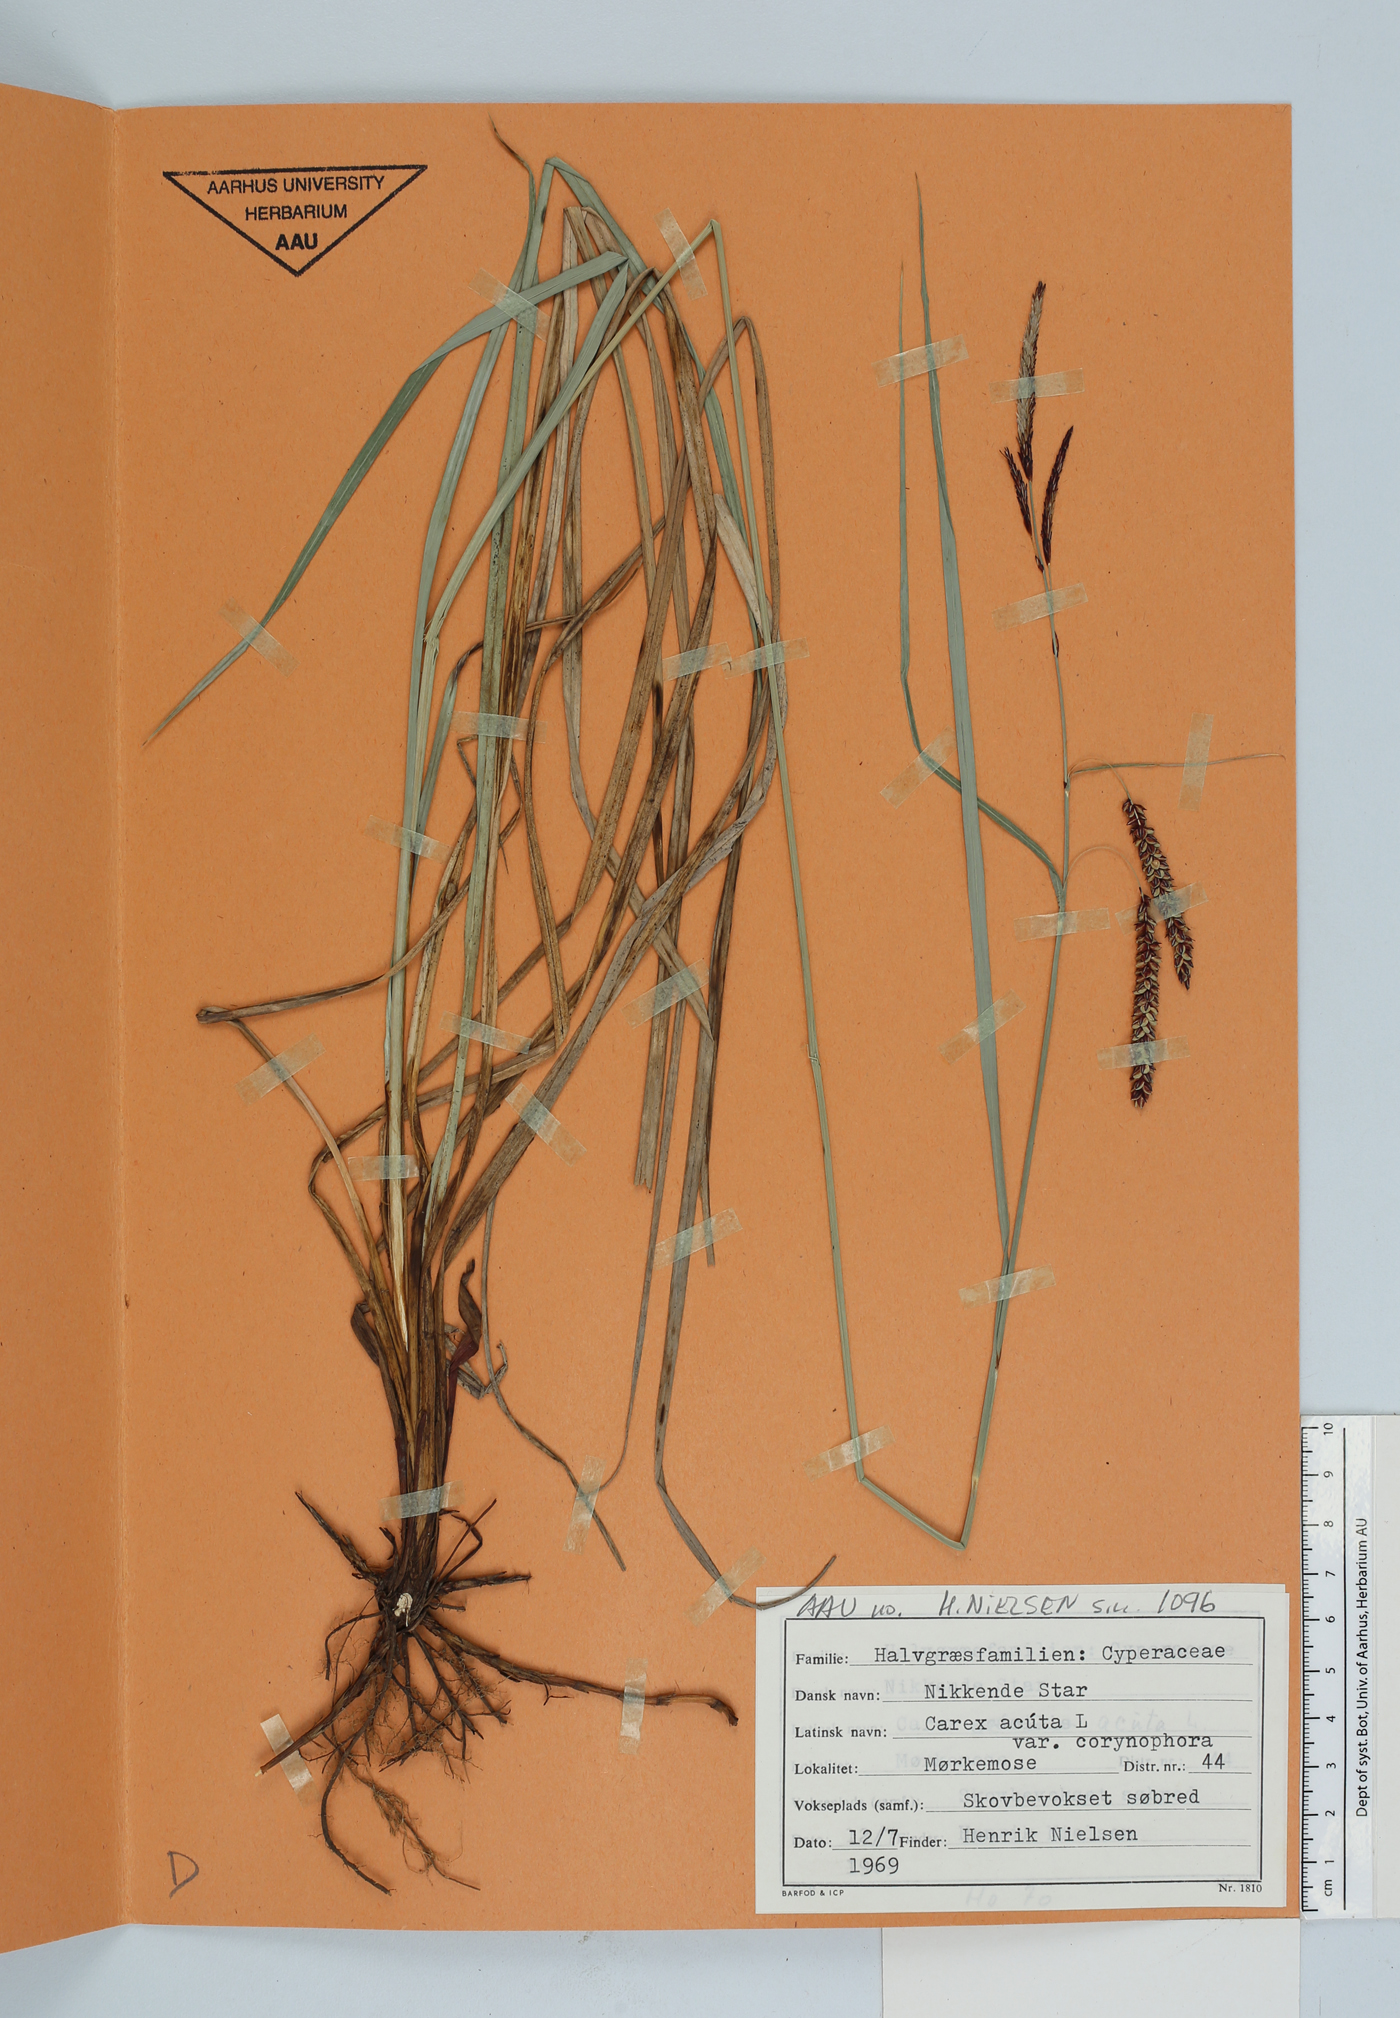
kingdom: Plantae
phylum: Tracheophyta
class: Liliopsida
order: Poales
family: Cyperaceae
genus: Carex
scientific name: Carex acuta
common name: Slender tufted-sedge
